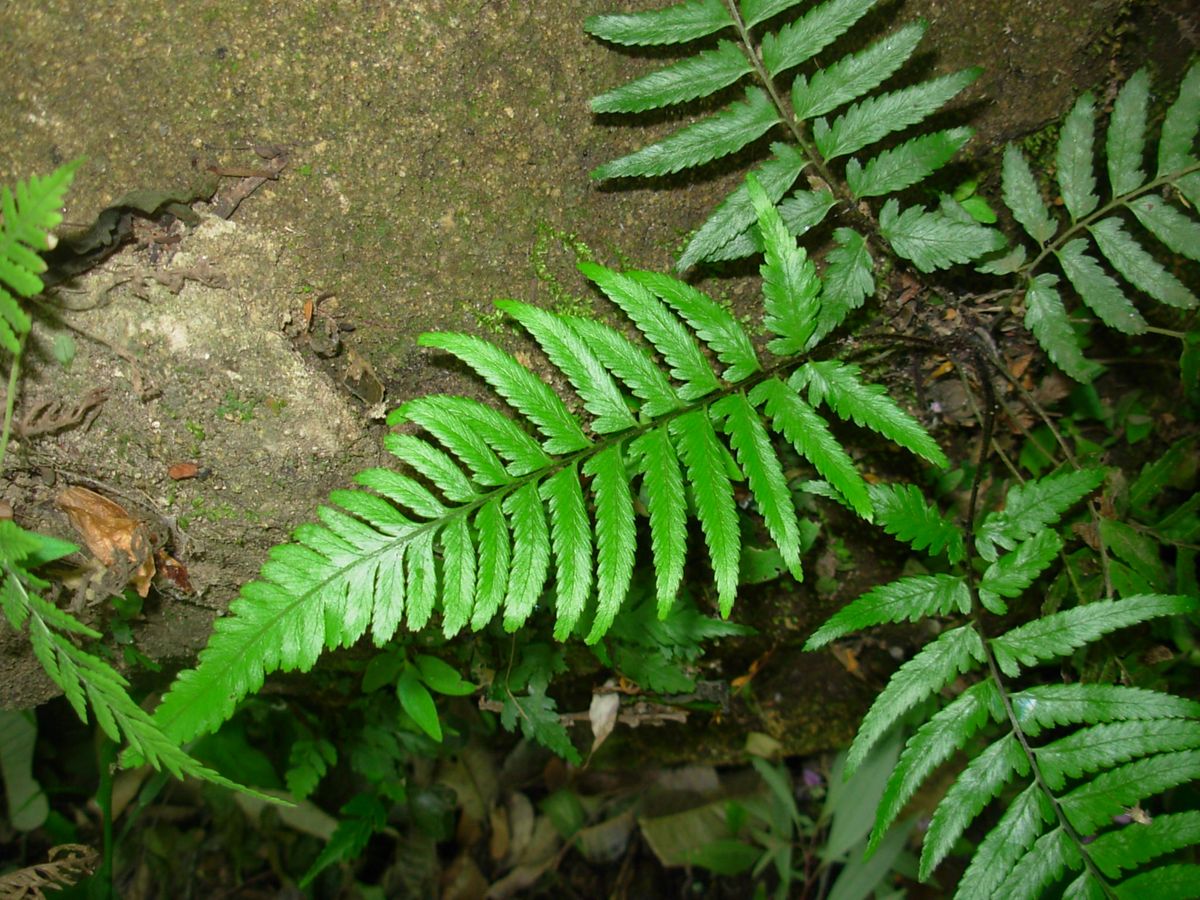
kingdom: Plantae
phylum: Tracheophyta
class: Polypodiopsida
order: Polypodiales
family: Athyriaceae
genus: Diplazium
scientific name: Diplazium cristatum
